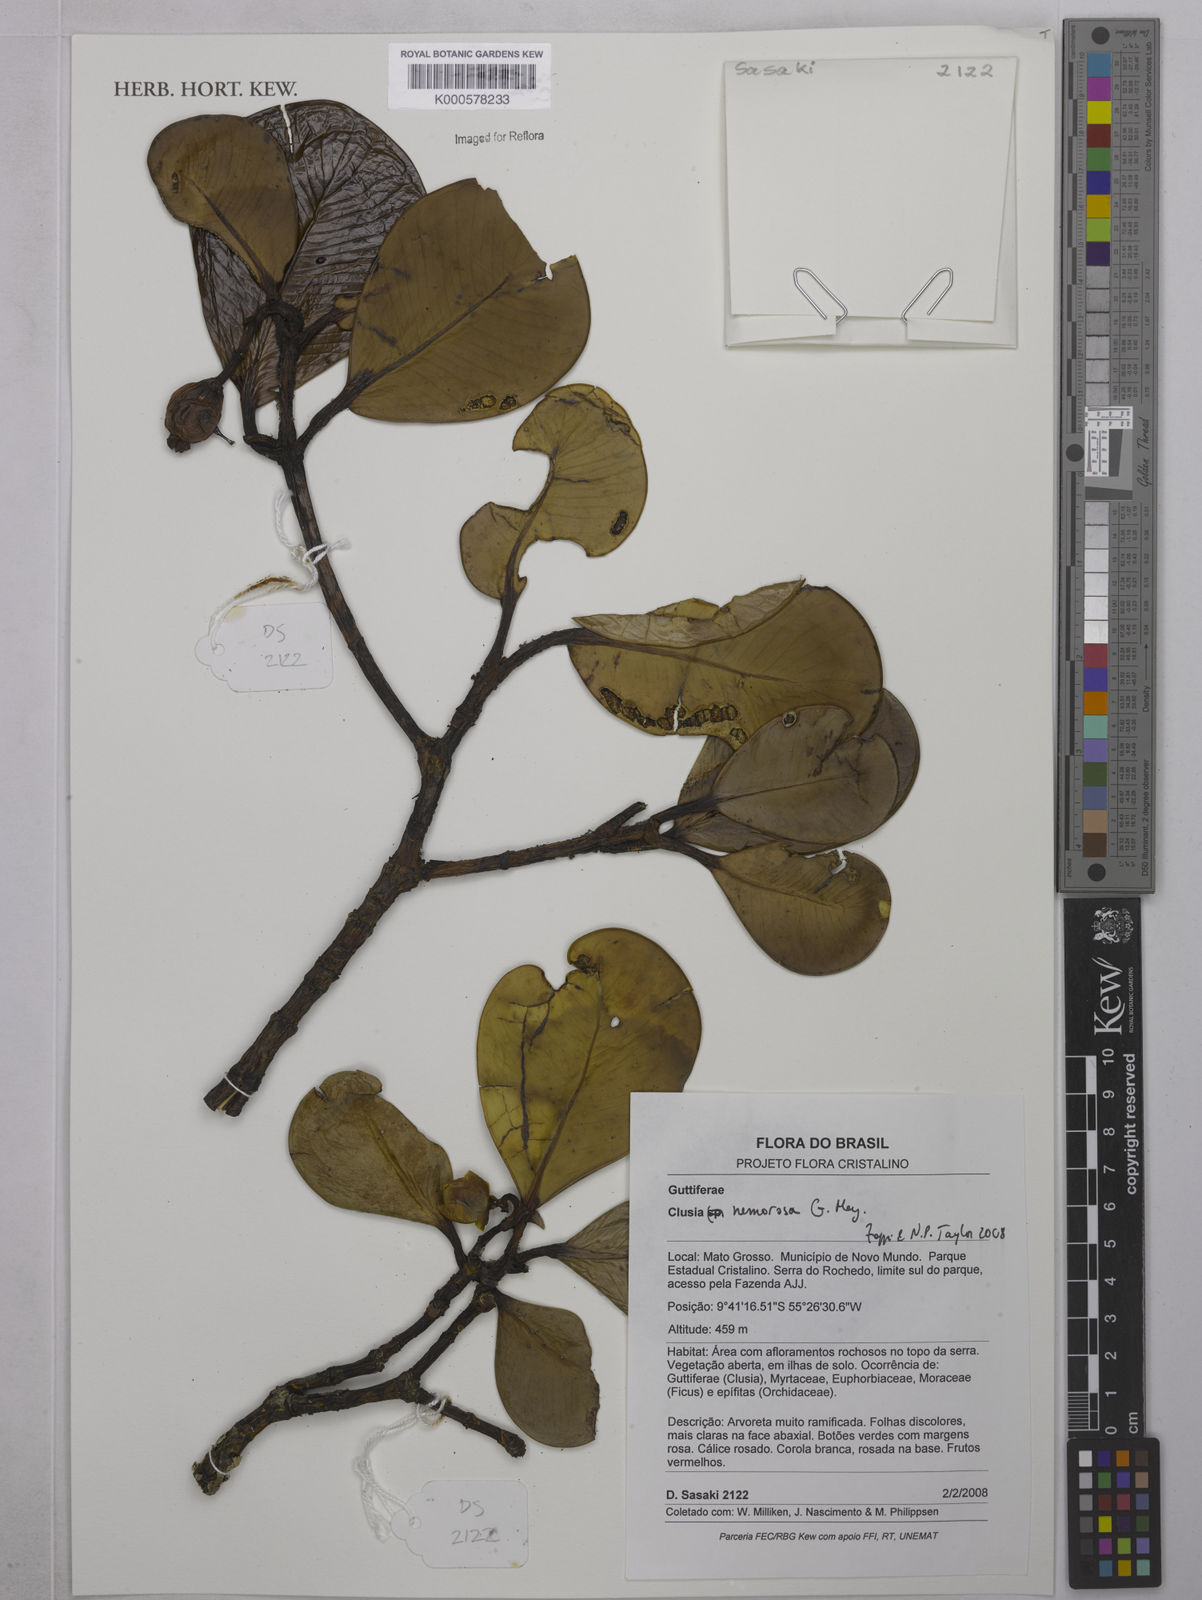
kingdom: Plantae
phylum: Tracheophyta
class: Magnoliopsida
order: Malpighiales
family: Clusiaceae
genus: Clusia
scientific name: Clusia nemorosa
